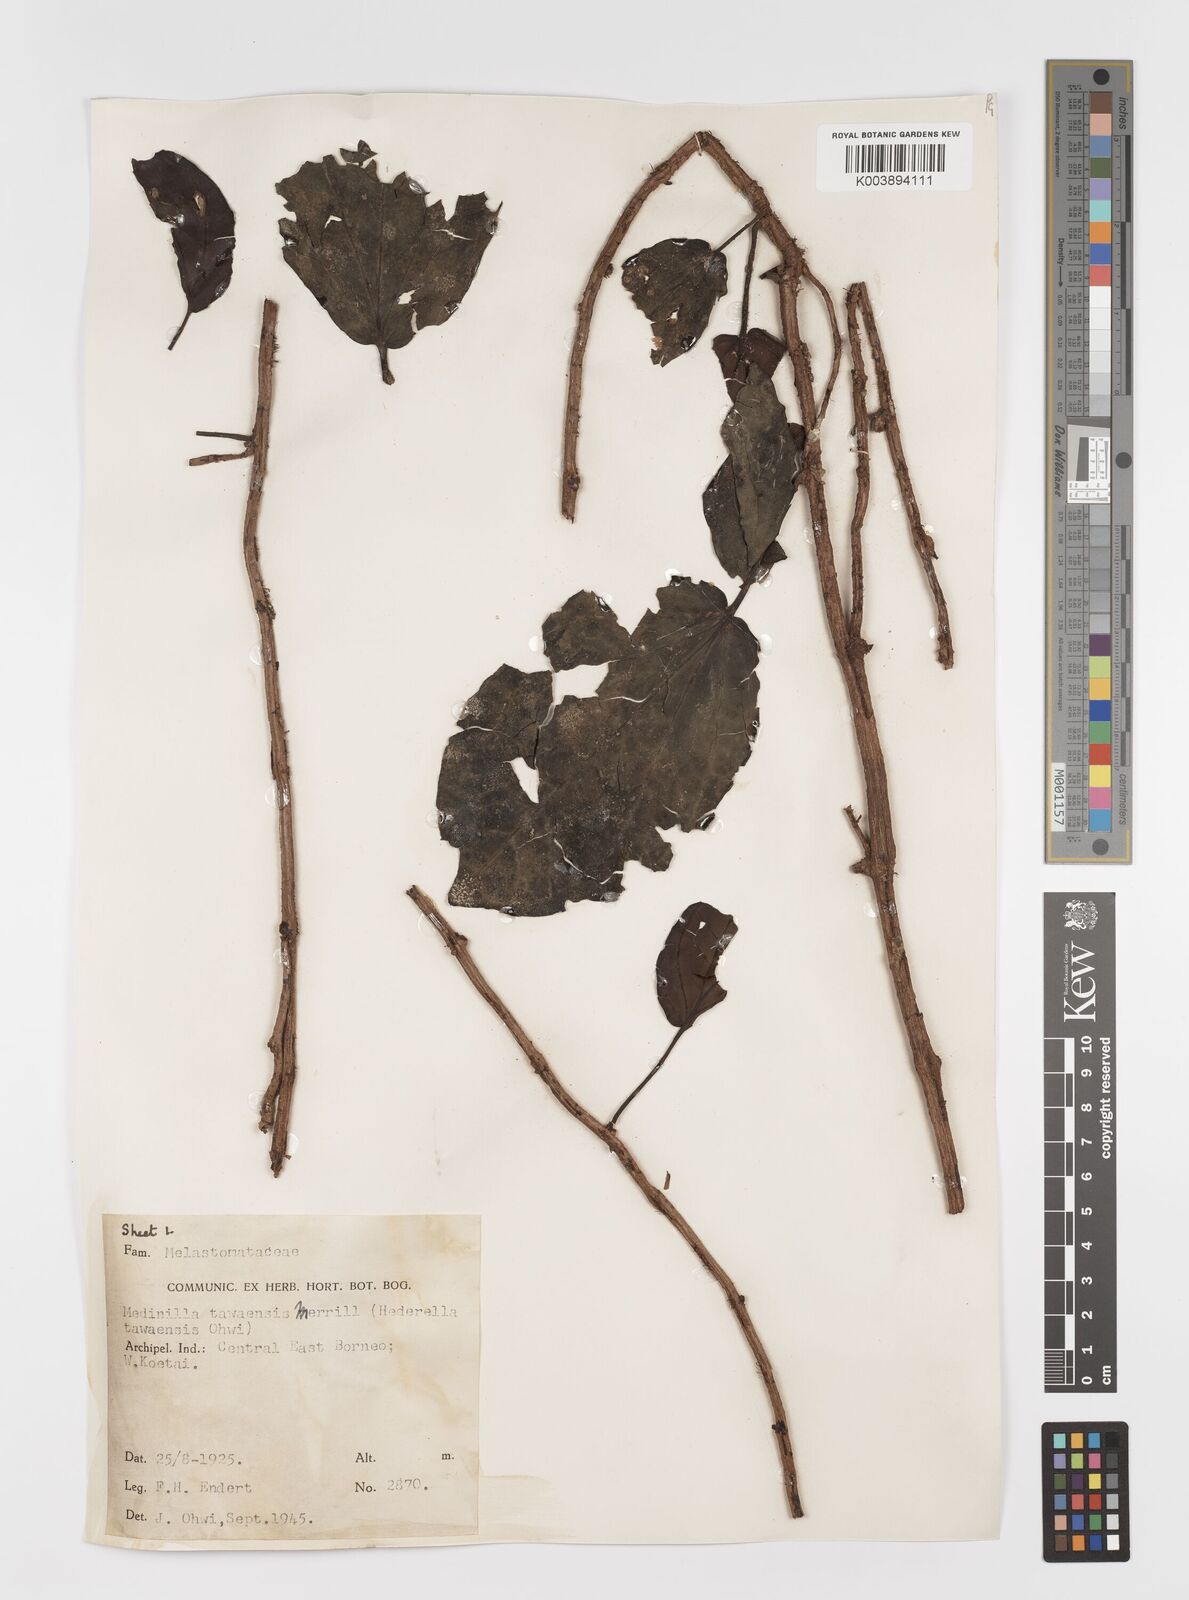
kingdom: Plantae
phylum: Tracheophyta
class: Magnoliopsida
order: Myrtales
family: Melastomataceae
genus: Catanthera
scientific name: Catanthera tawaensis
